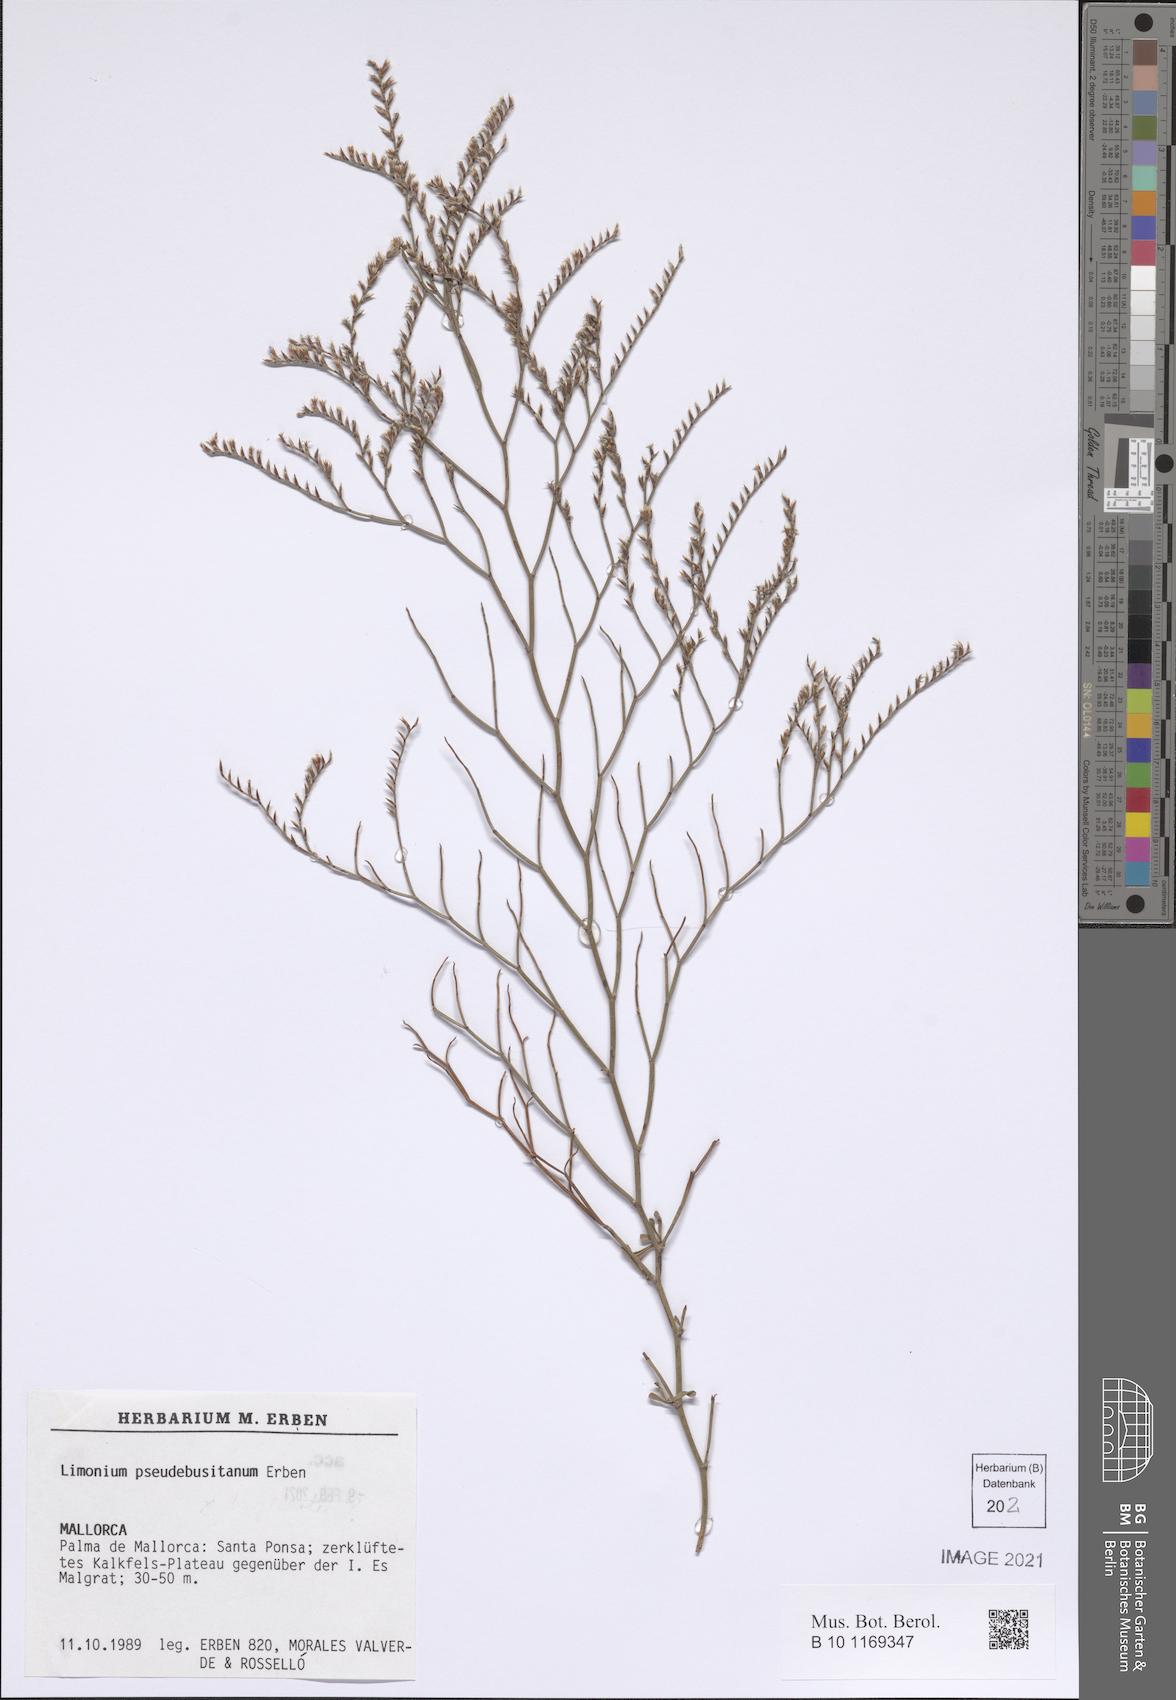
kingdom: Plantae
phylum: Tracheophyta
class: Magnoliopsida
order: Caryophyllales
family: Plumbaginaceae
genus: Limonium
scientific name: Limonium pseudebusitanum
